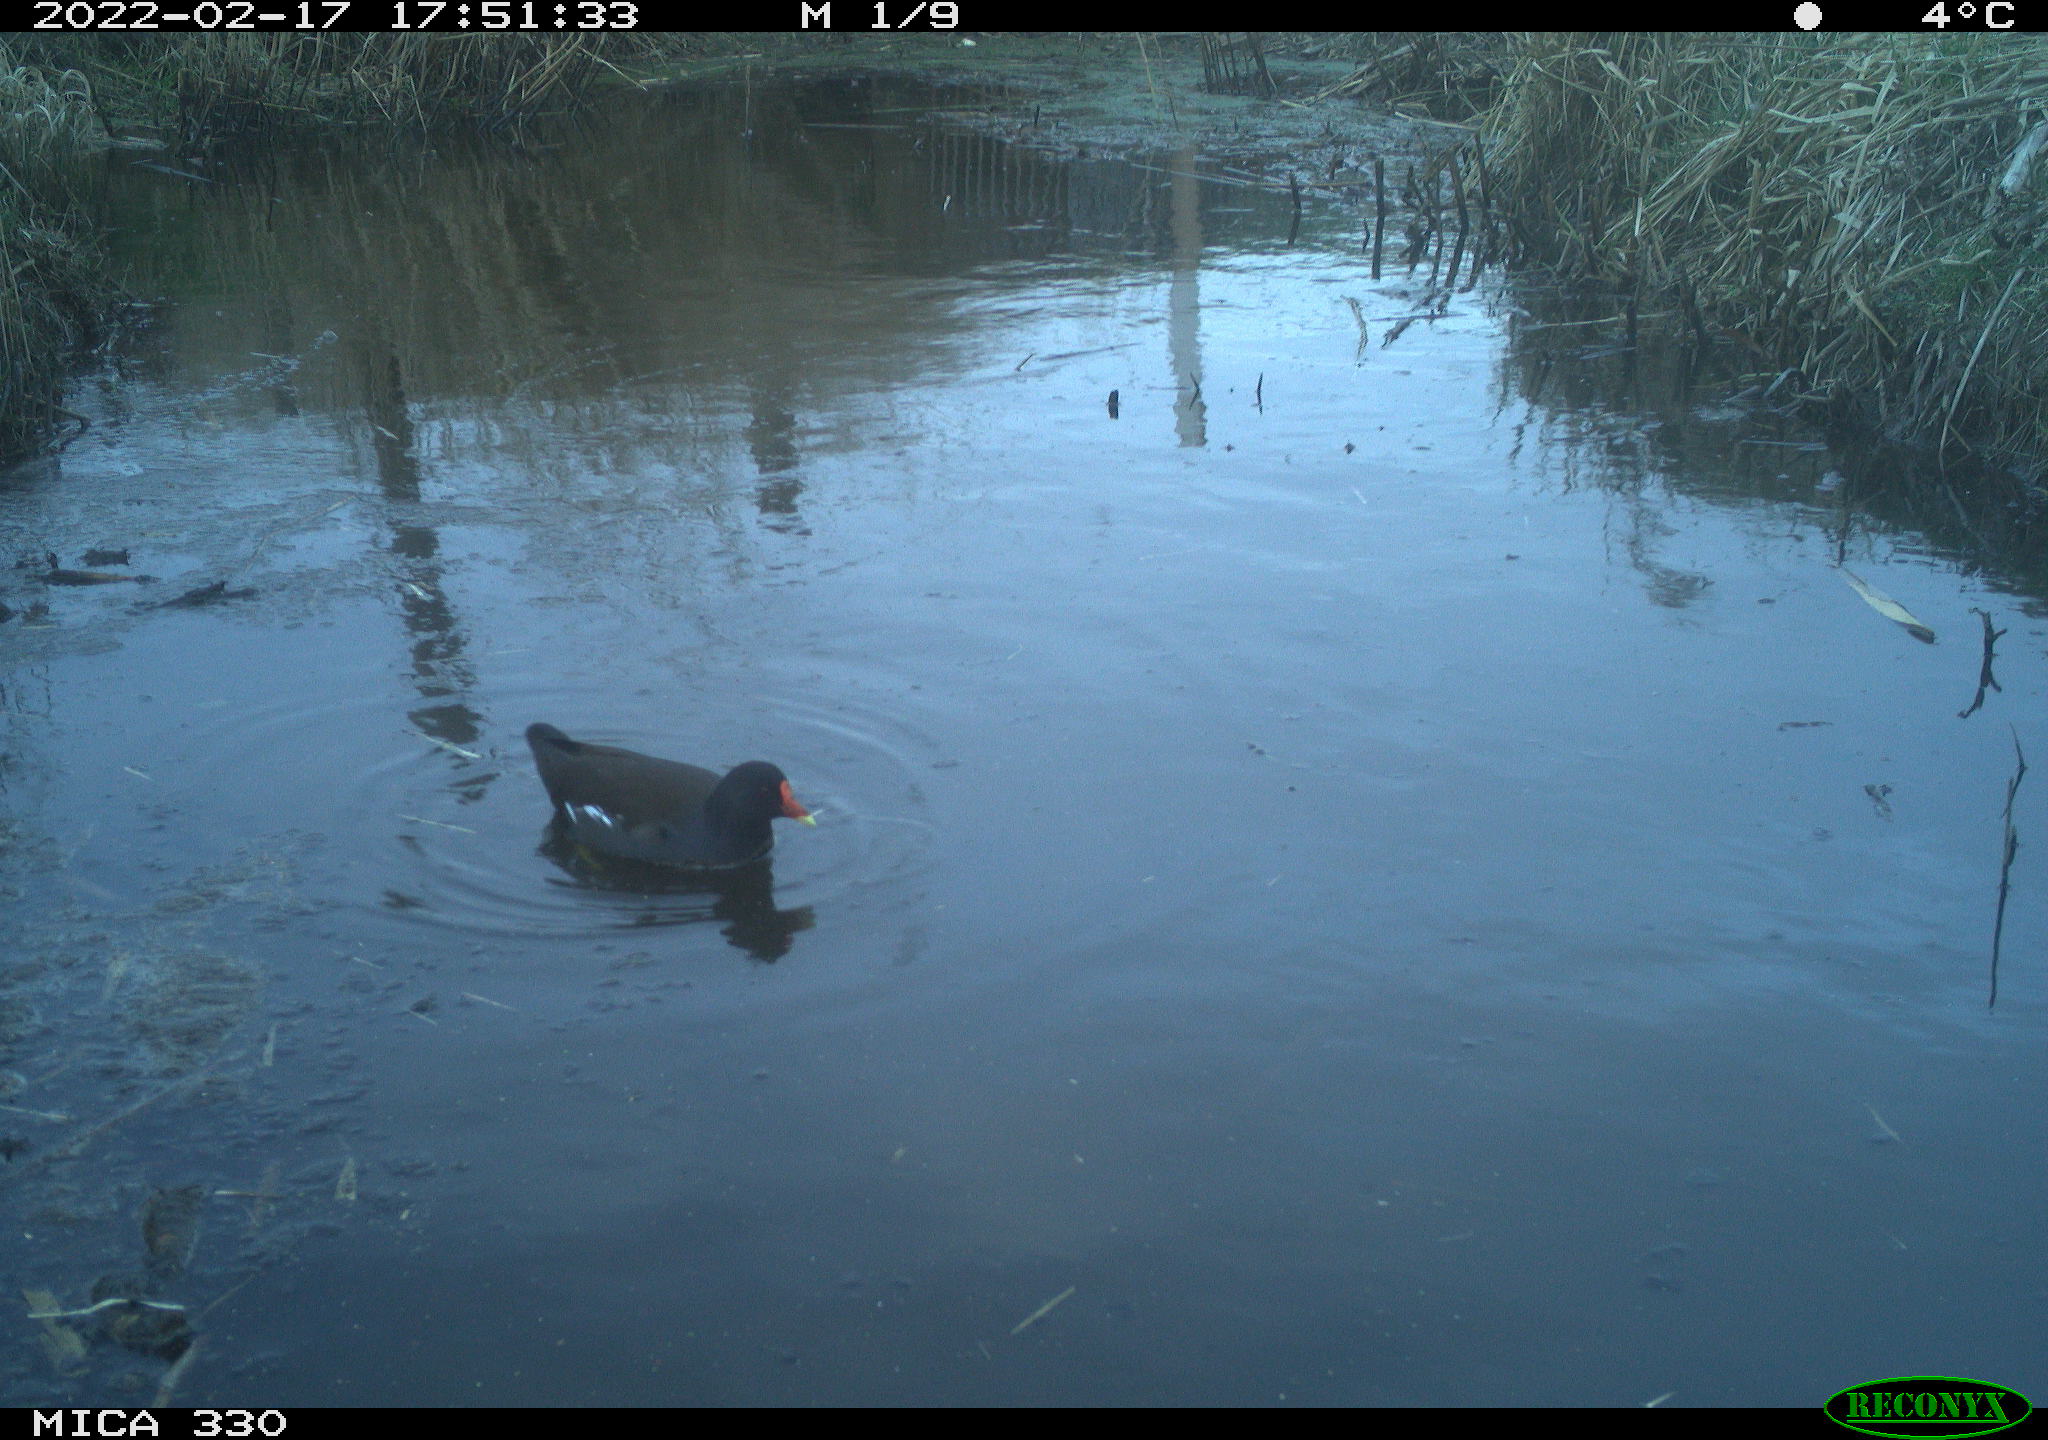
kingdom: Animalia
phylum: Chordata
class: Aves
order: Gruiformes
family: Rallidae
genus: Gallinula
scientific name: Gallinula chloropus
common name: Common moorhen
